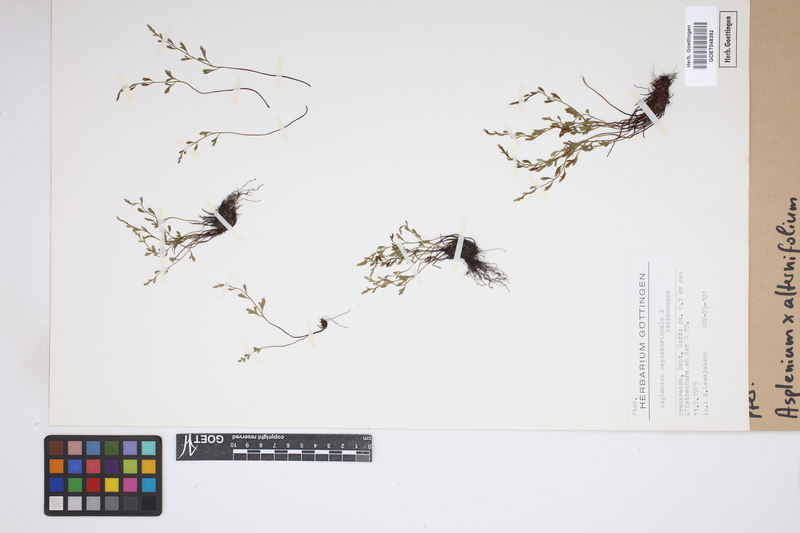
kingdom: Plantae
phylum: Tracheophyta
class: Polypodiopsida
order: Polypodiales
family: Aspleniaceae
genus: Asplenium
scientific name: Asplenium alternifolium
